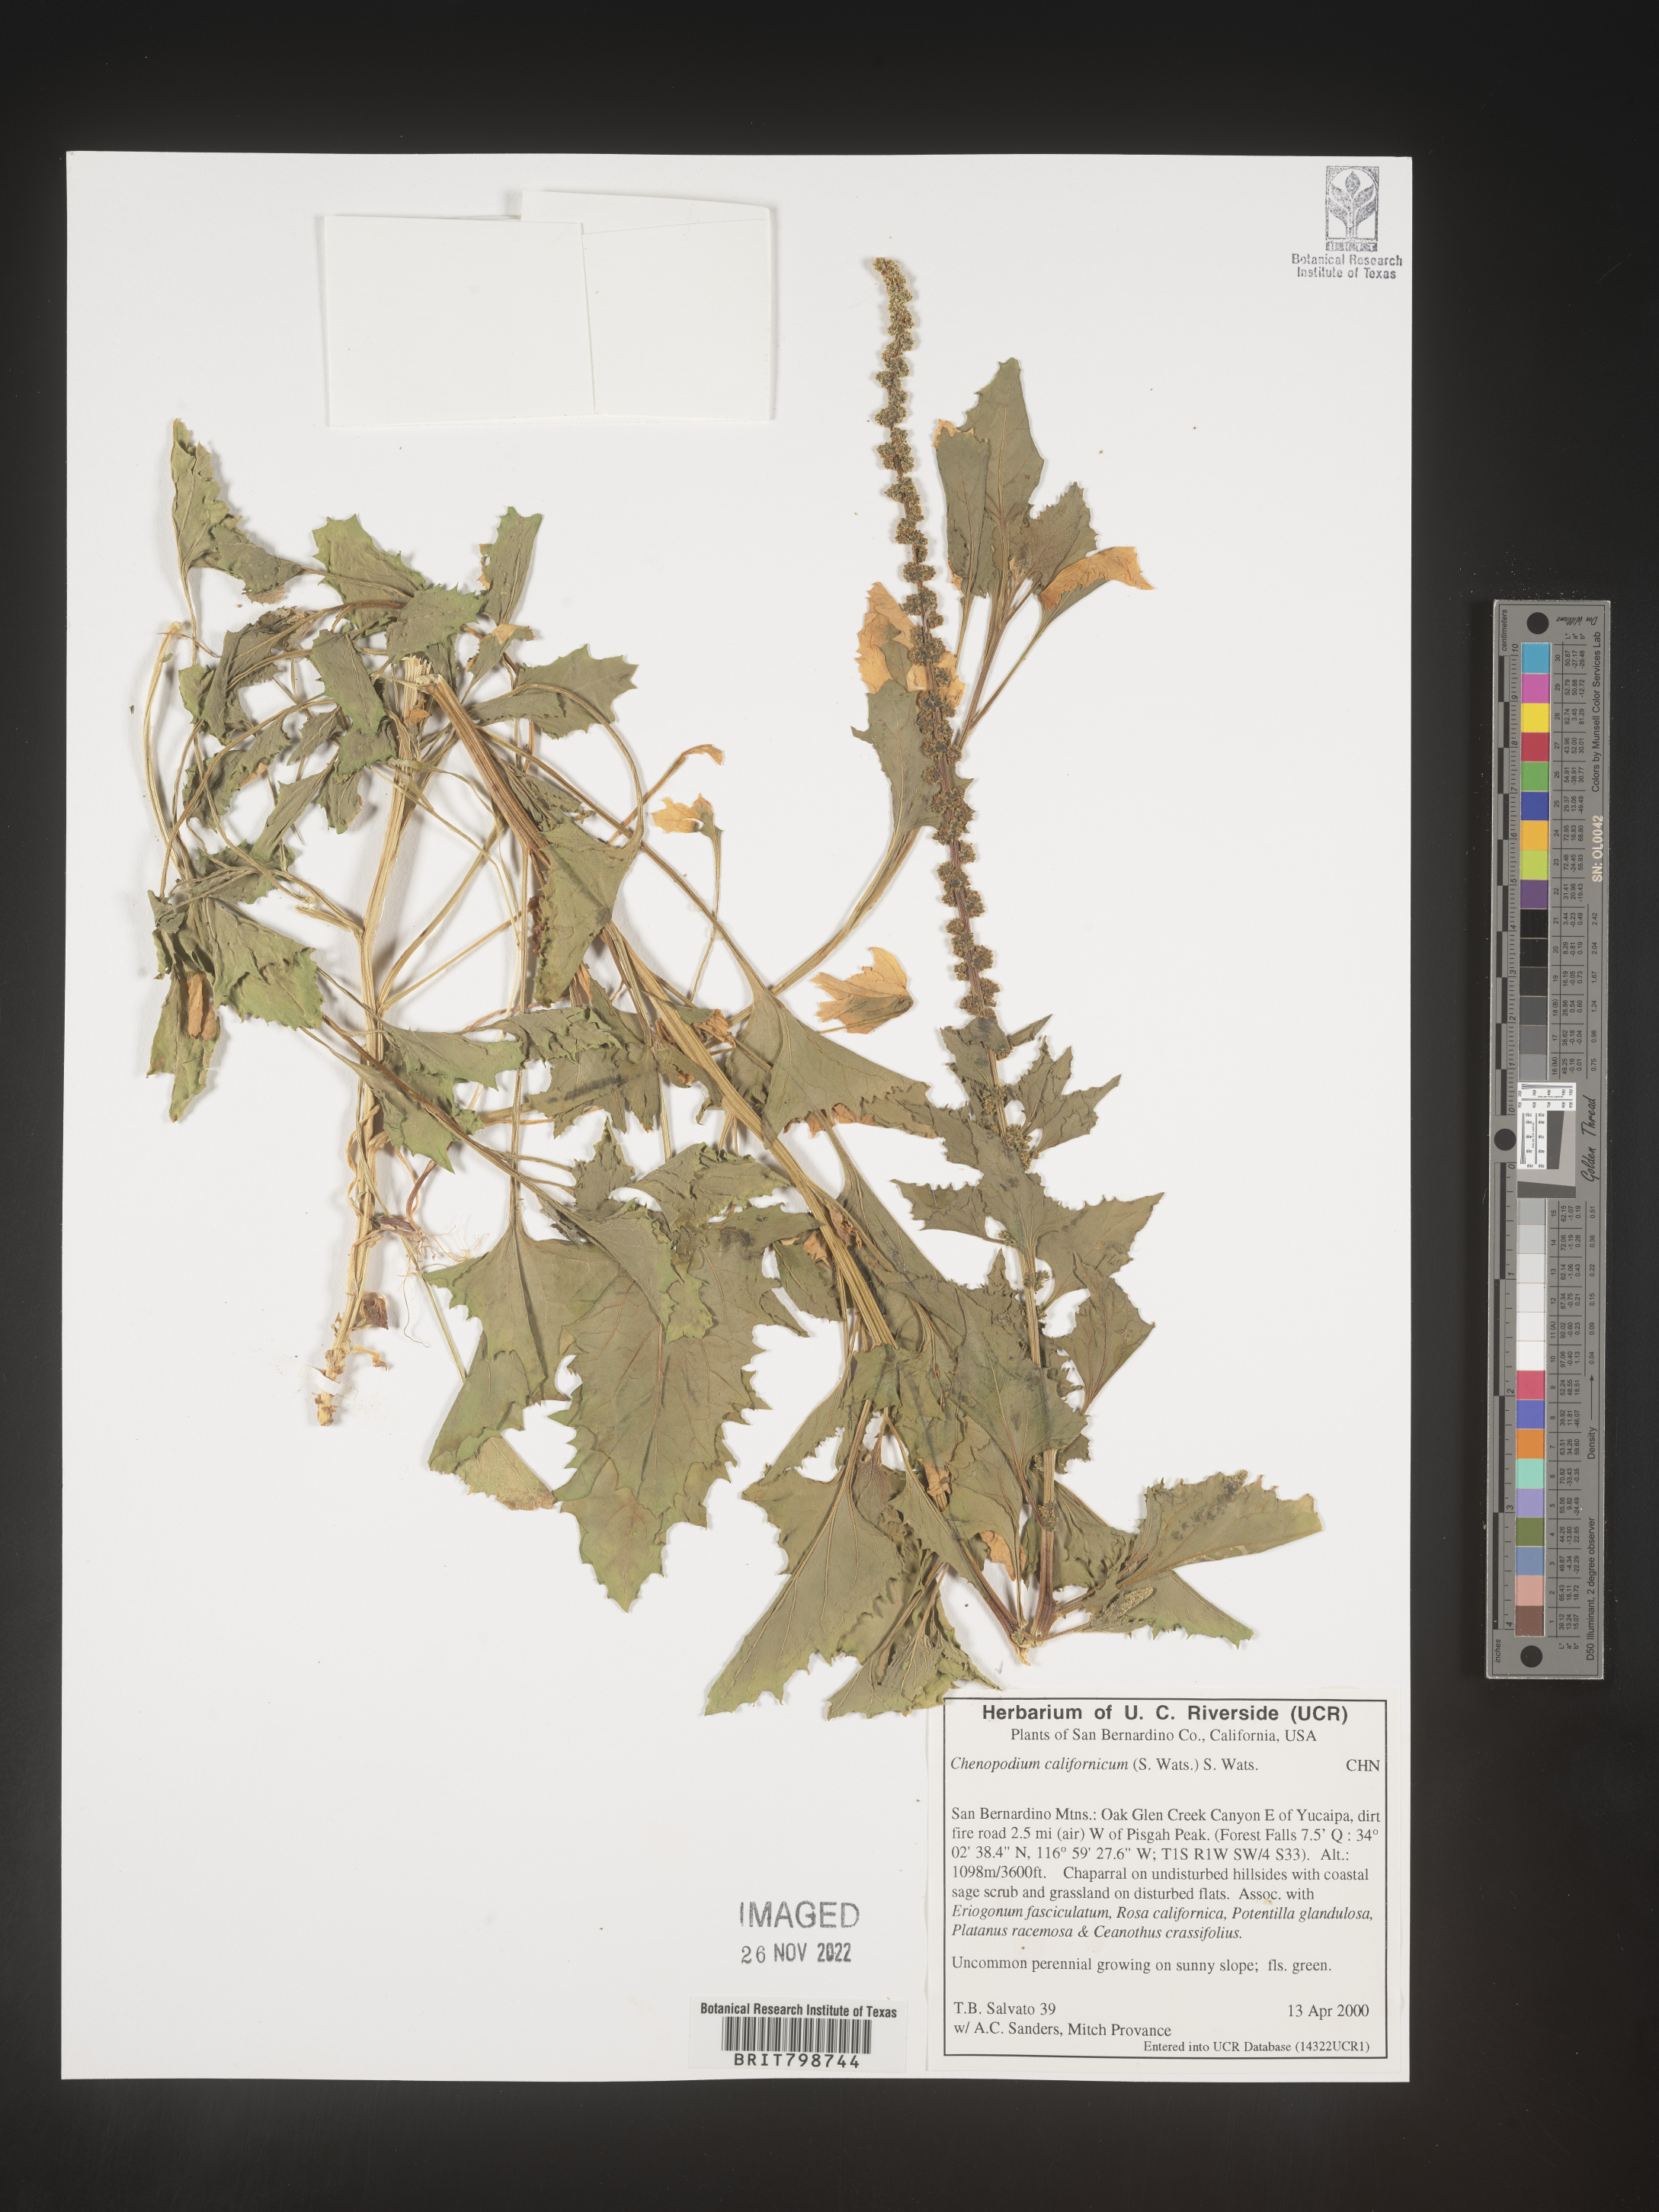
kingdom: Plantae
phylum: Tracheophyta
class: Magnoliopsida
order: Caryophyllales
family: Amaranthaceae
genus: Blitum
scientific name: Blitum californicum
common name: California goosefoot
